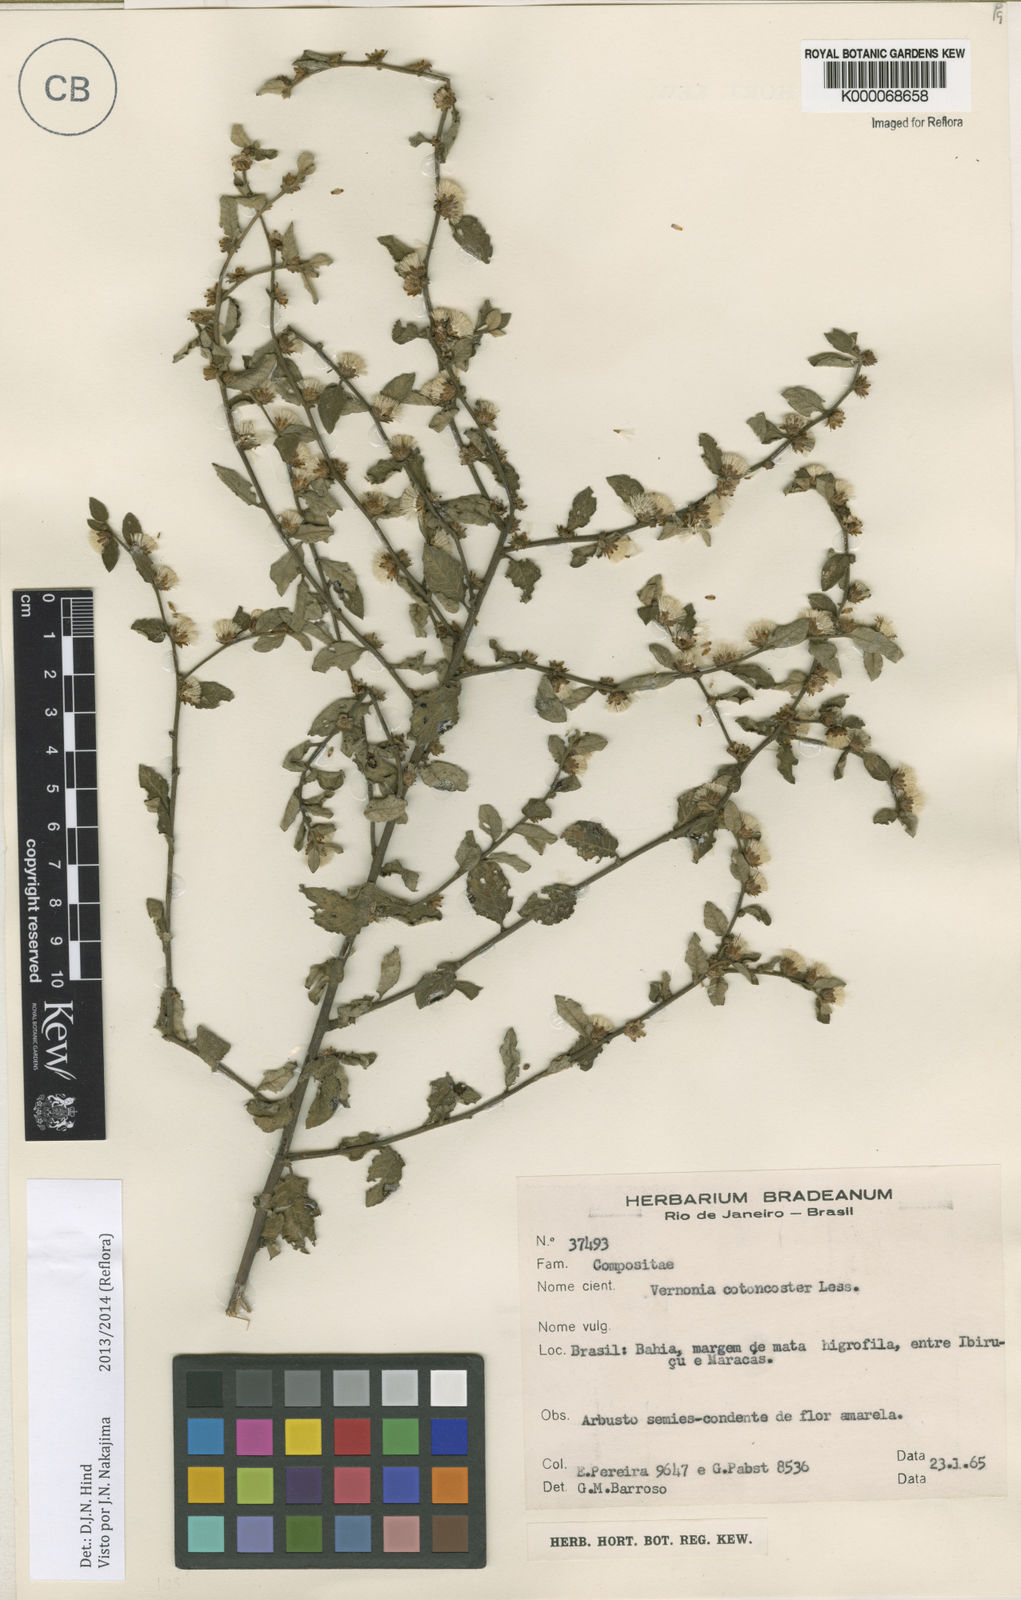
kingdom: Plantae
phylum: Tracheophyta
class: Magnoliopsida
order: Asterales
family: Asteraceae
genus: Lepidaploa
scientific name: Lepidaploa cotoneaster
